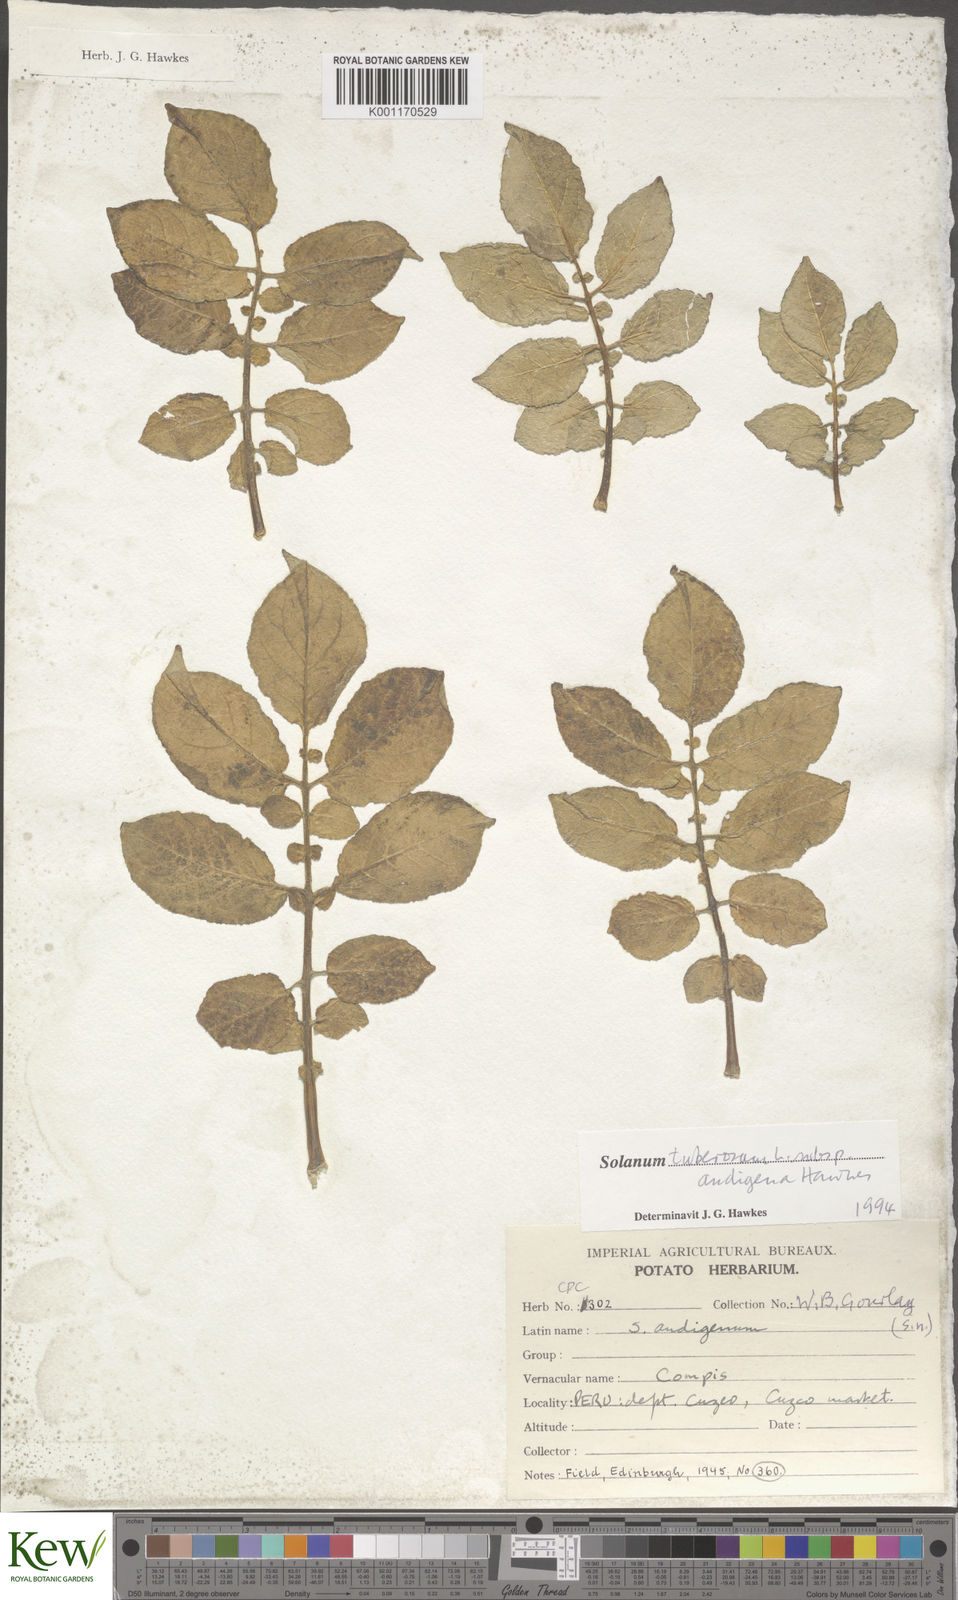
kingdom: Plantae
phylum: Tracheophyta
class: Magnoliopsida
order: Solanales
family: Solanaceae
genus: Solanum
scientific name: Solanum tuberosum
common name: Potato
